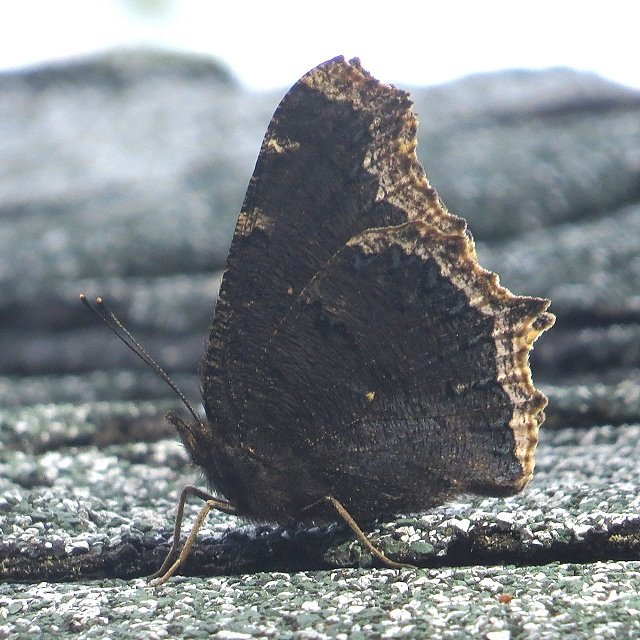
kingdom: Animalia
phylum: Arthropoda
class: Insecta
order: Lepidoptera
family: Nymphalidae
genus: Nymphalis
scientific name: Nymphalis antiopa
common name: Mourning Cloak
